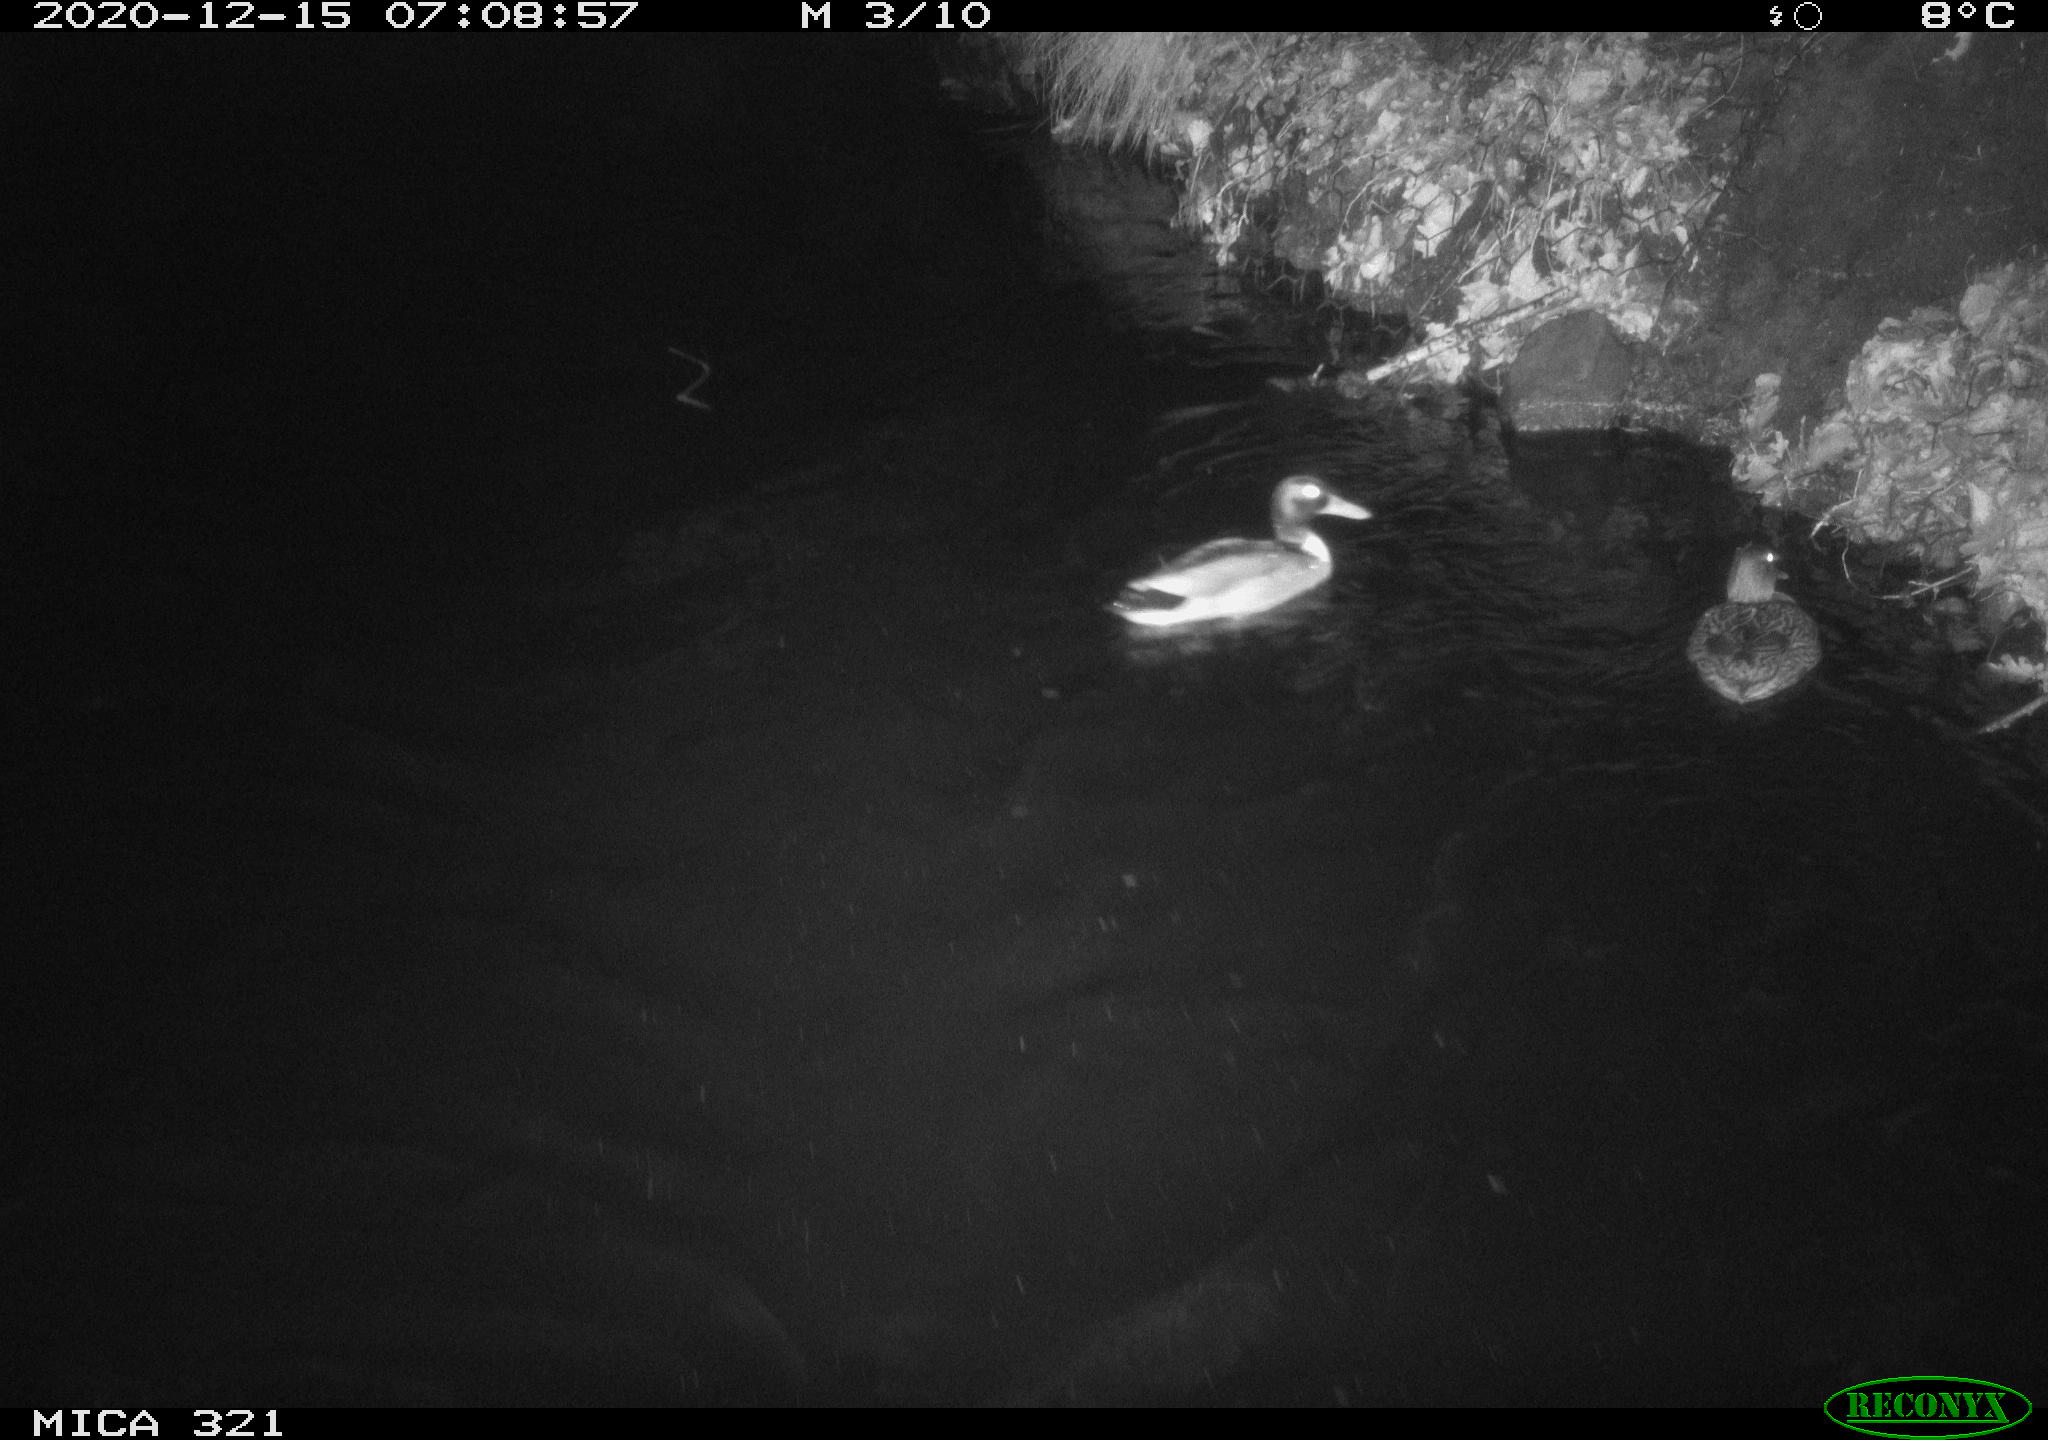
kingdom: Animalia
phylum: Chordata
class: Aves
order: Anseriformes
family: Anatidae
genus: Anas
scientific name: Anas platyrhynchos
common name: Mallard
